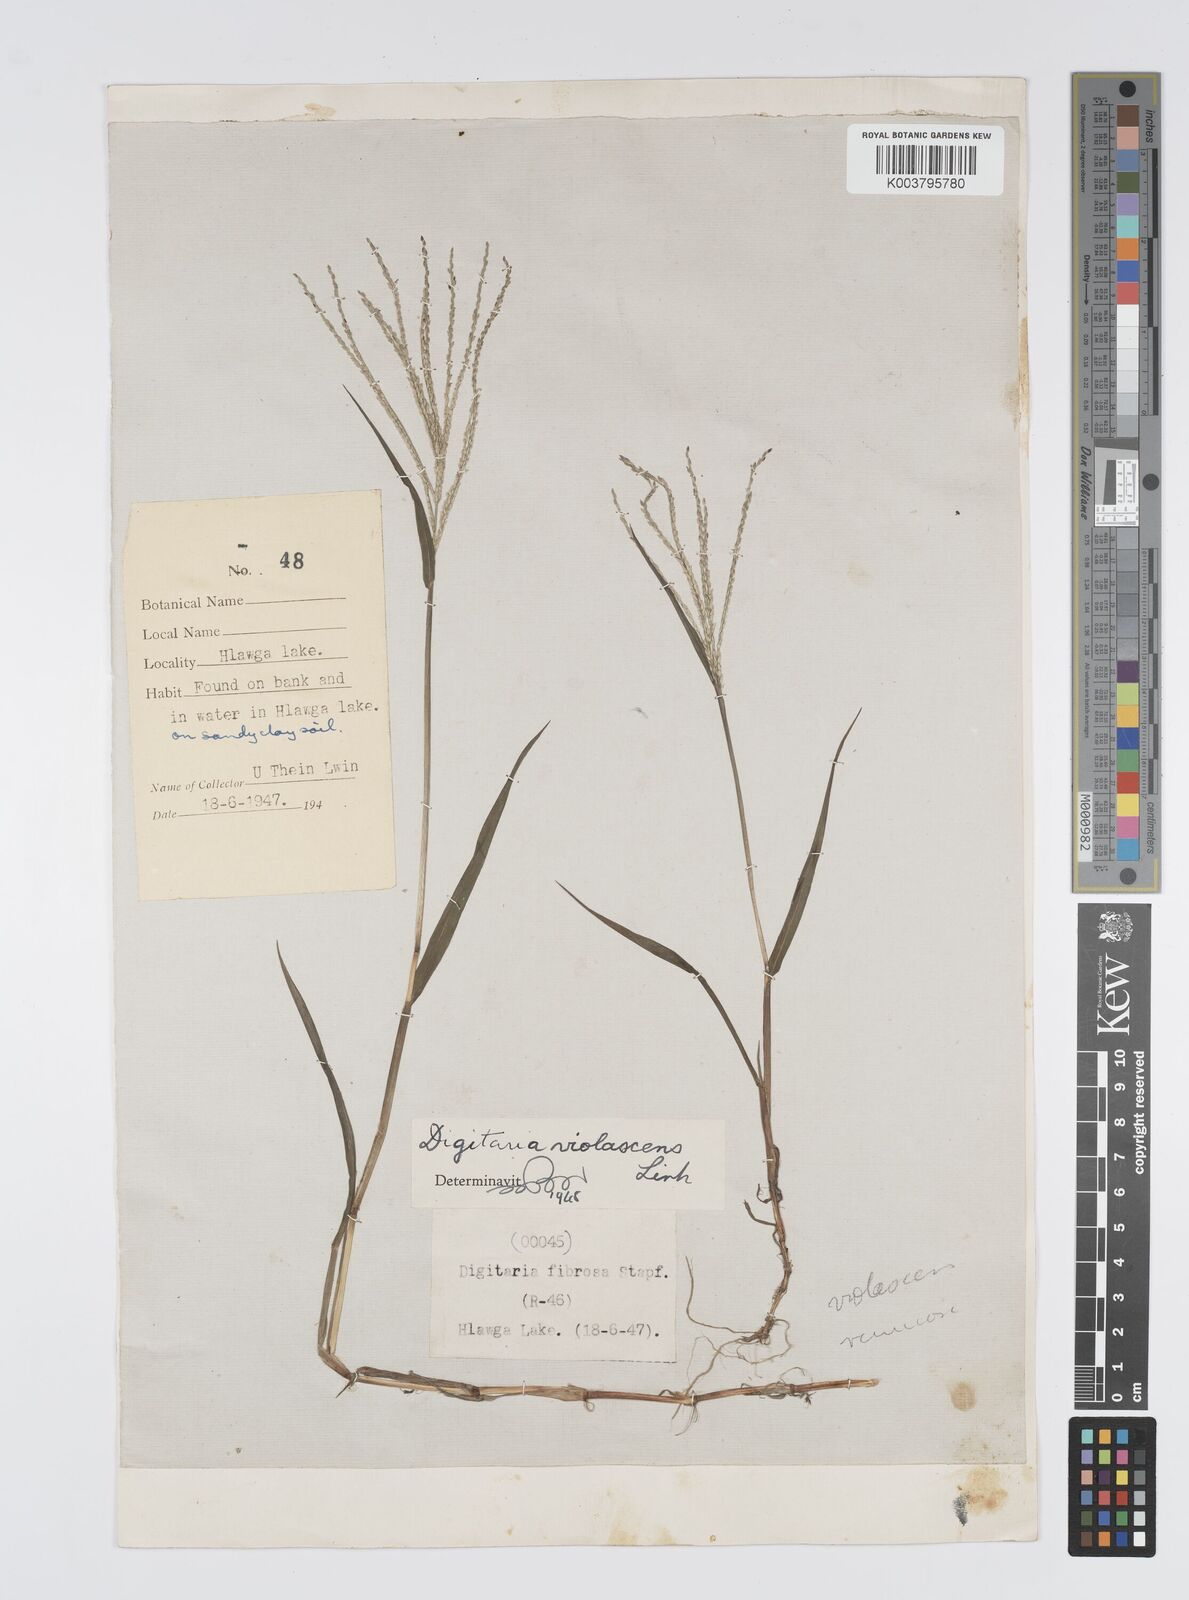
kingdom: Plantae
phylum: Tracheophyta
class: Liliopsida
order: Poales
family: Poaceae
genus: Digitaria
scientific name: Digitaria violascens
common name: Violet crabgrass
